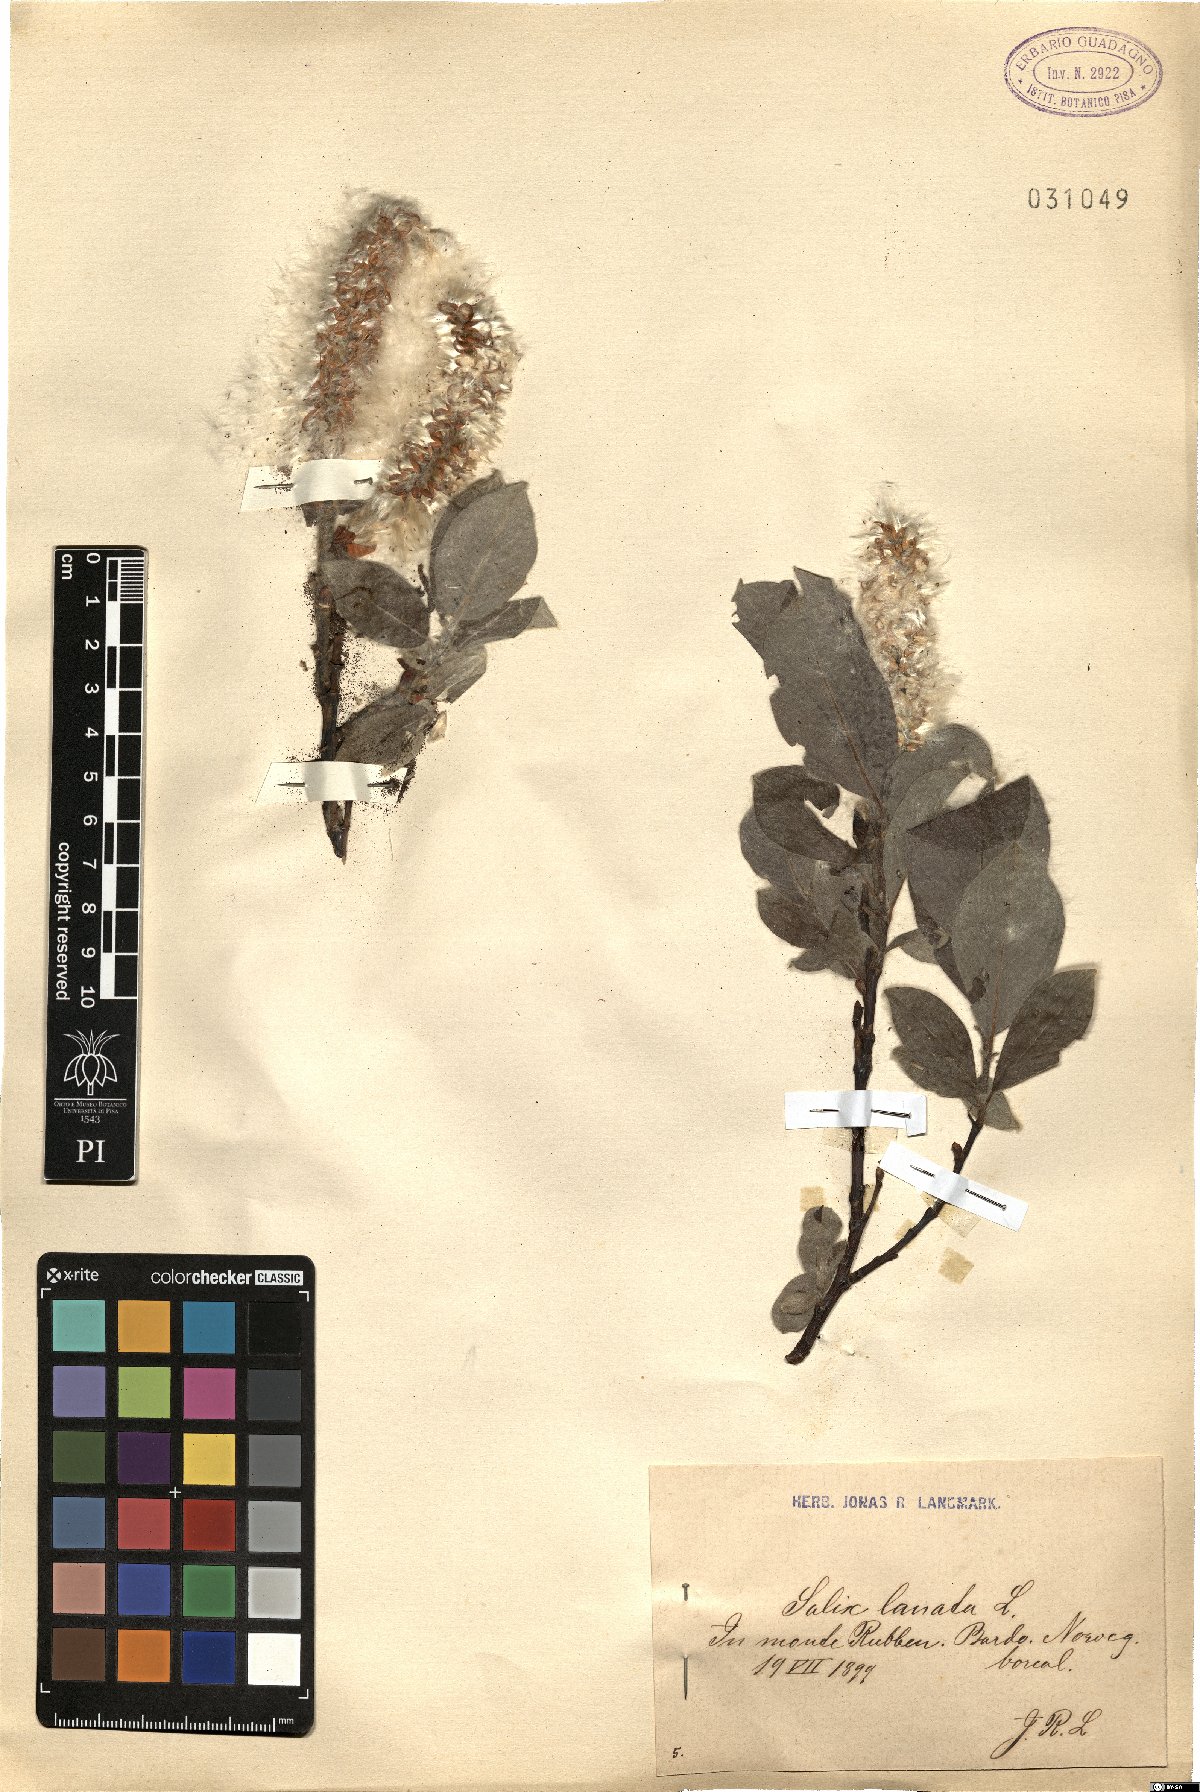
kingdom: Plantae
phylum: Tracheophyta
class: Magnoliopsida
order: Malpighiales
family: Salicaceae
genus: Salix
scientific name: Salix lanata
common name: Woolly willow
